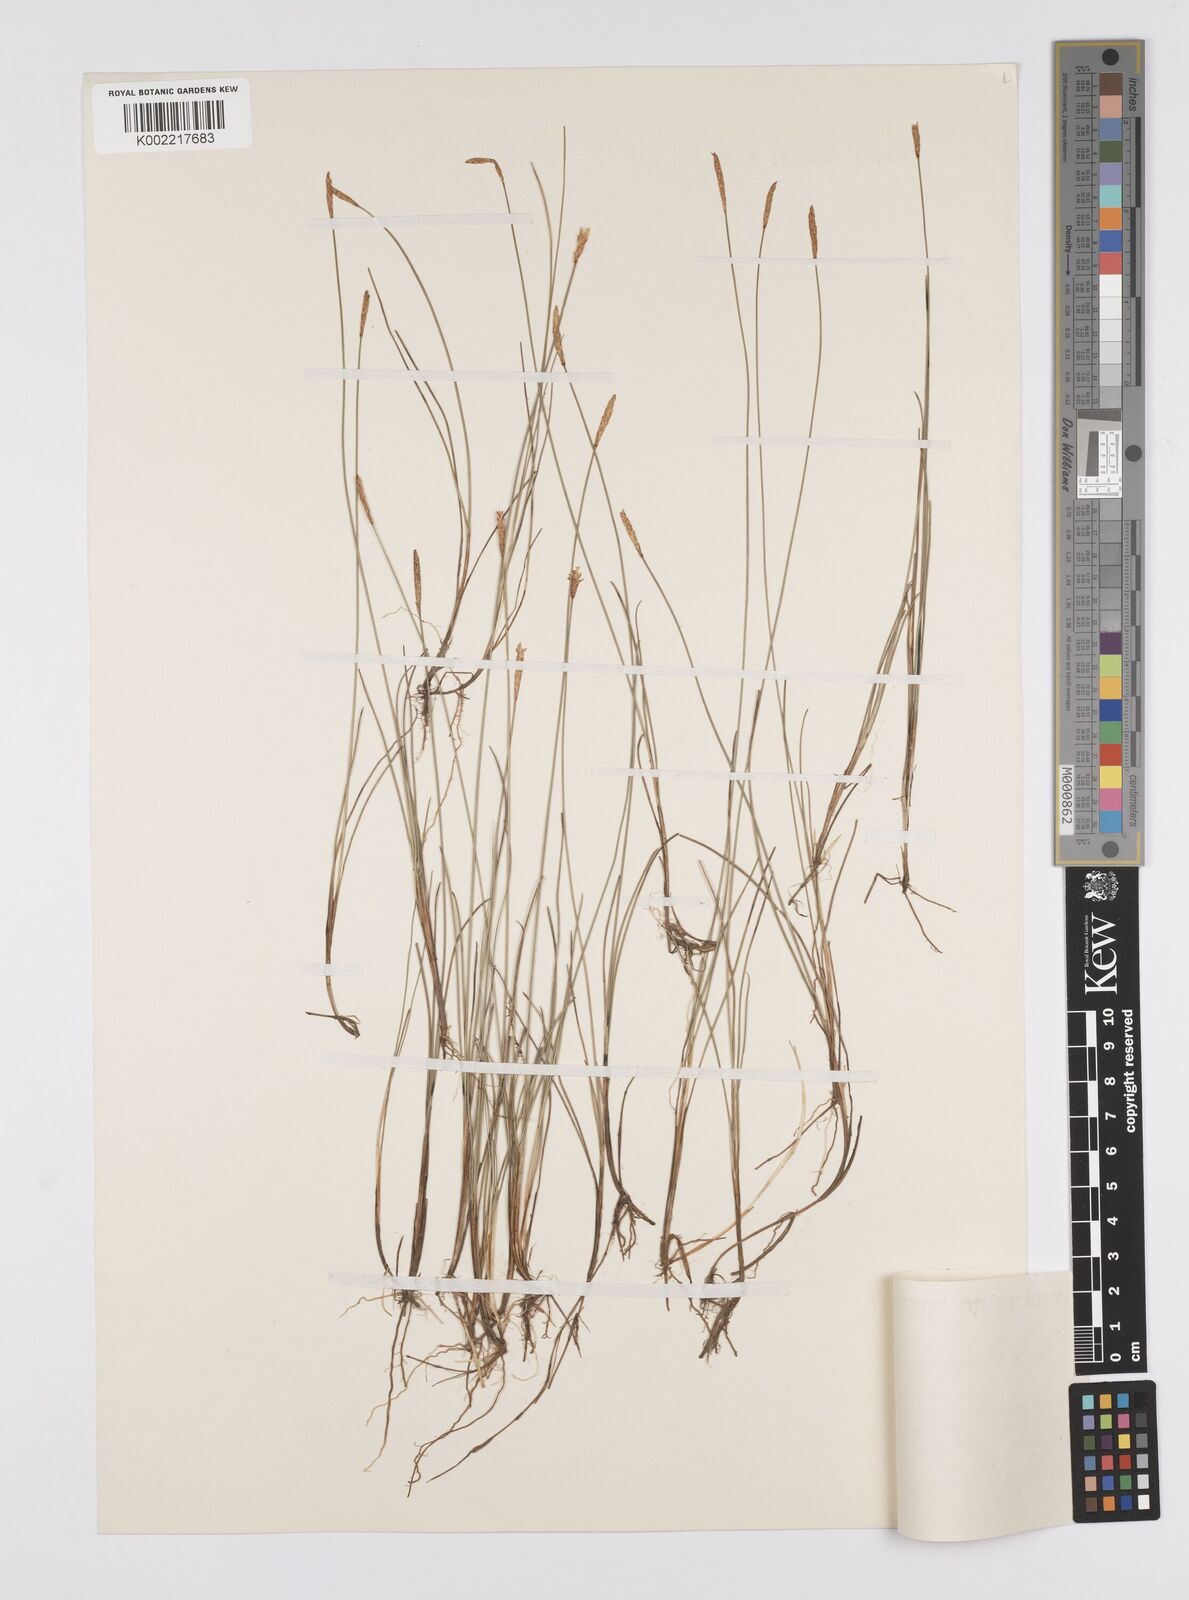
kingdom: Plantae
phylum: Tracheophyta
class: Liliopsida
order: Poales
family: Cyperaceae
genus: Carex
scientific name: Carex parallela
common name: Parallel sedge
